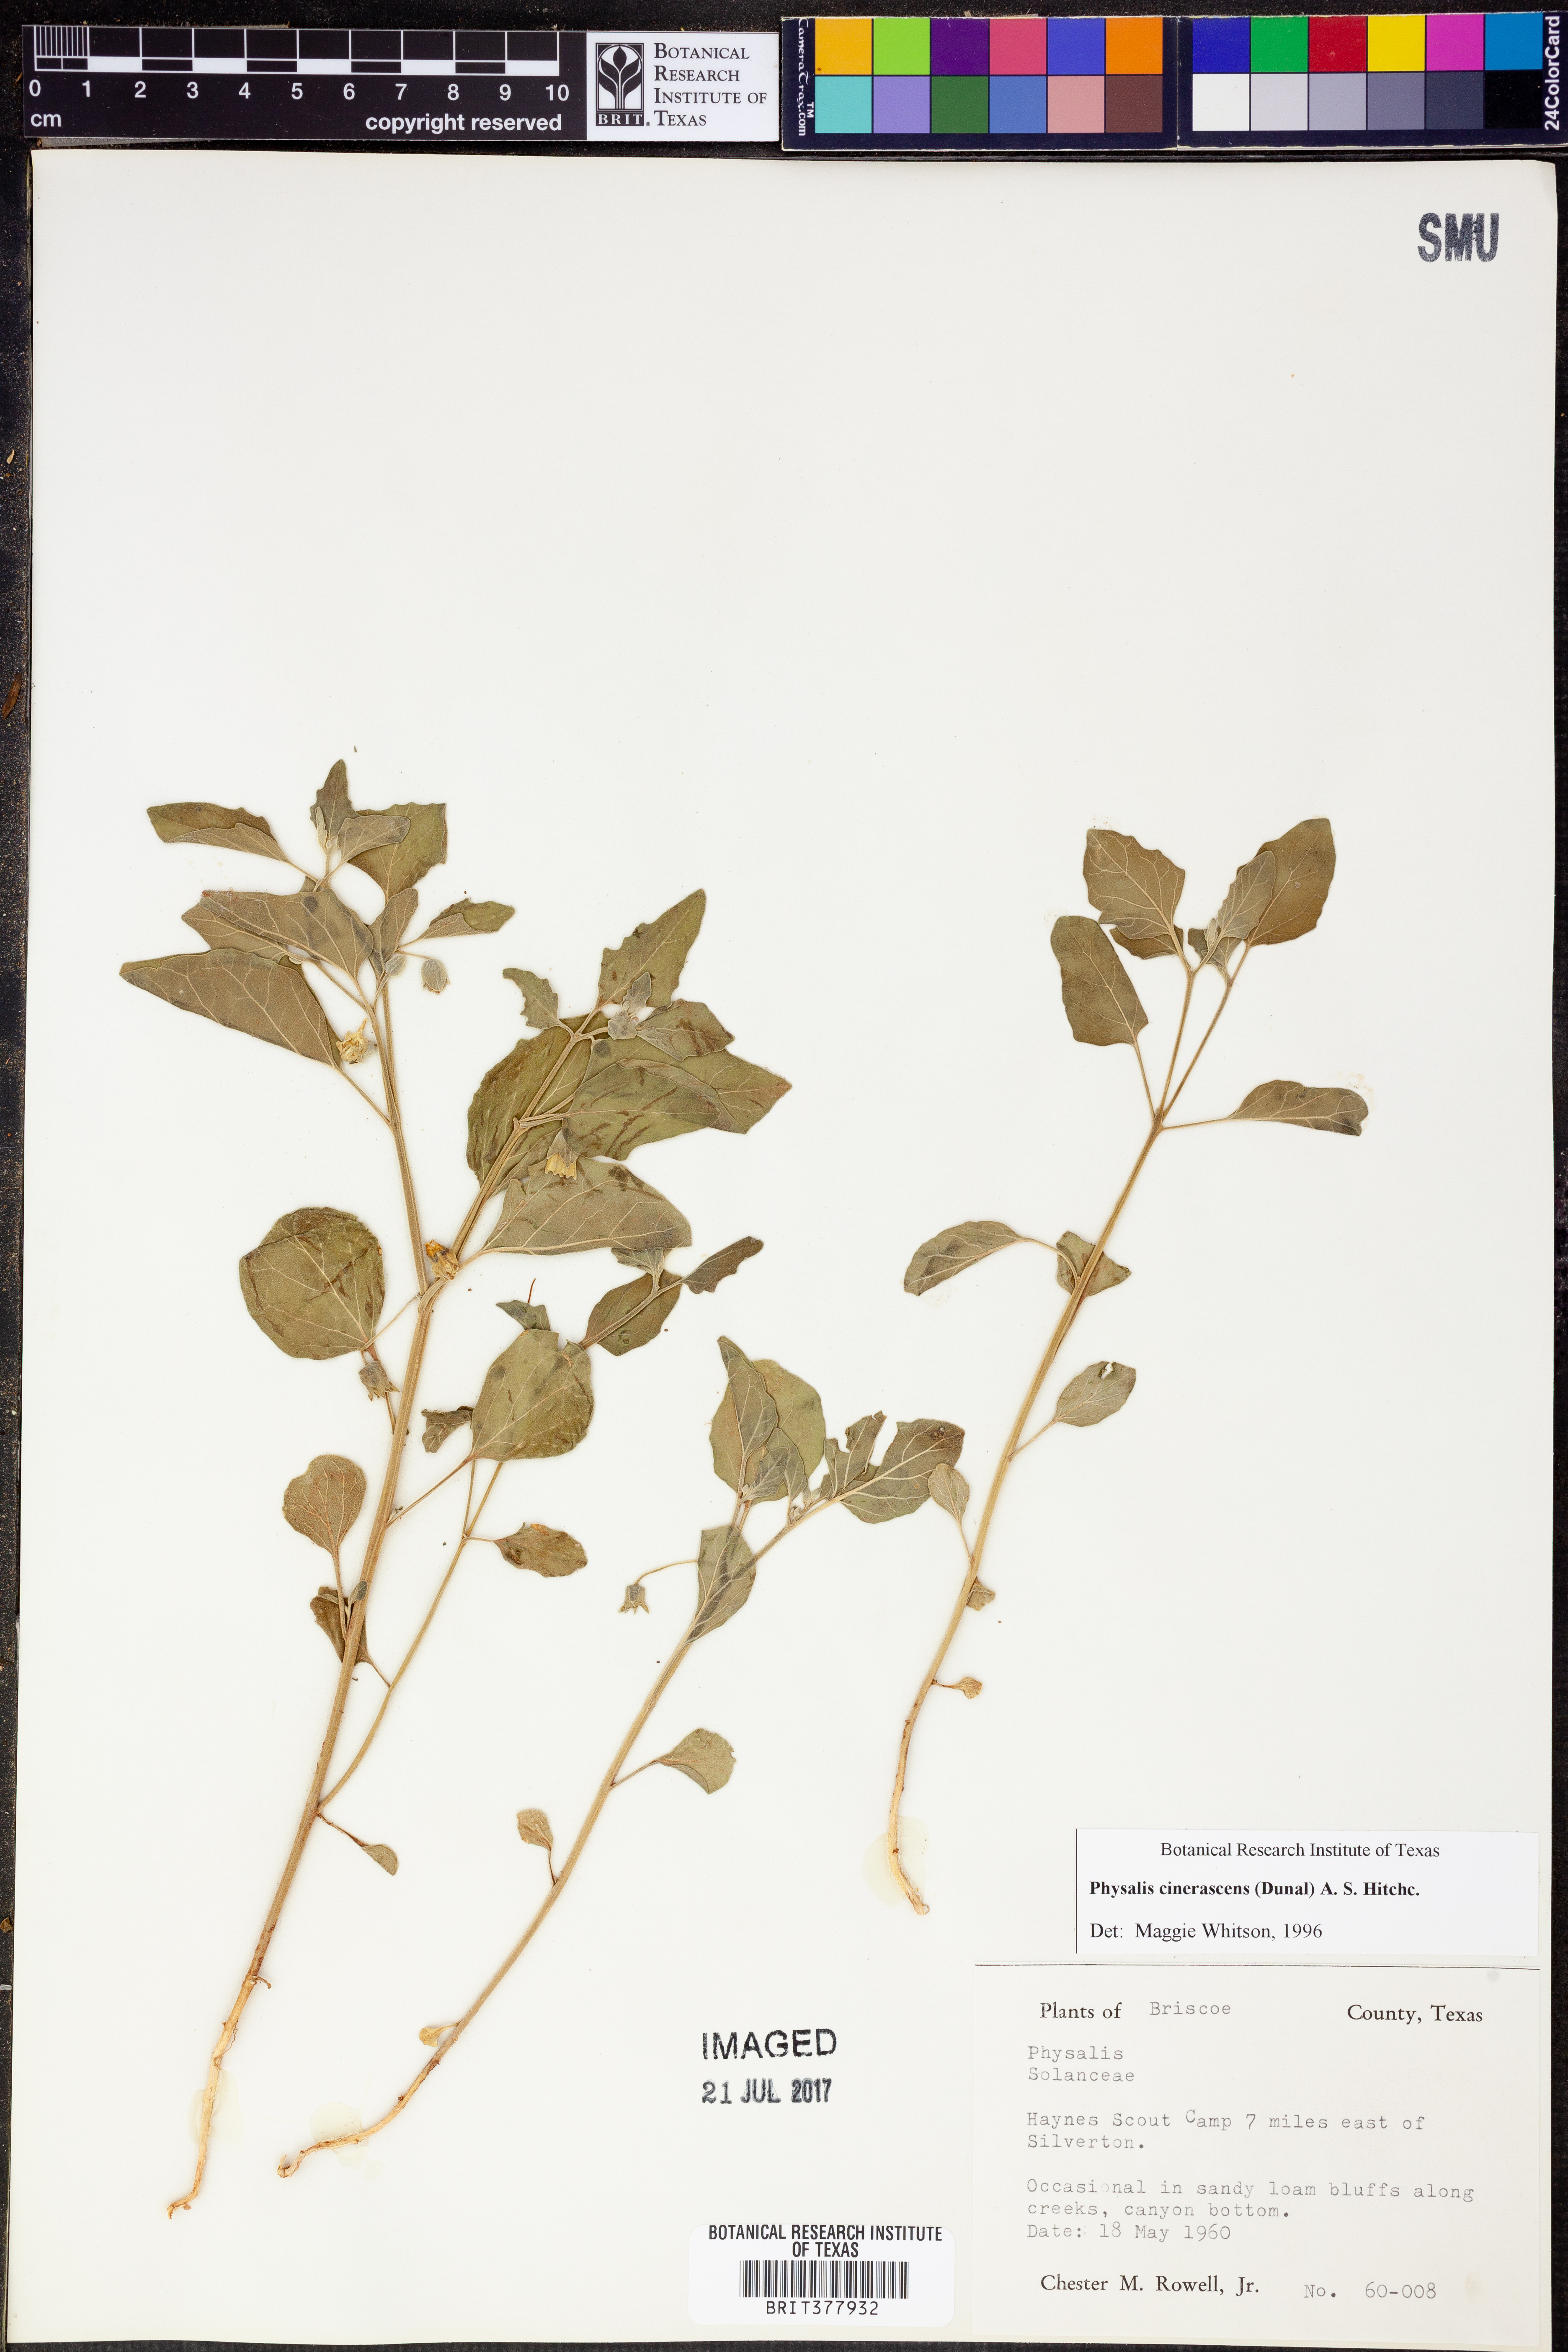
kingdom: Plantae
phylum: Tracheophyta
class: Magnoliopsida
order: Solanales
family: Solanaceae
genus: Physalis
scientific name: Physalis cinerascens
